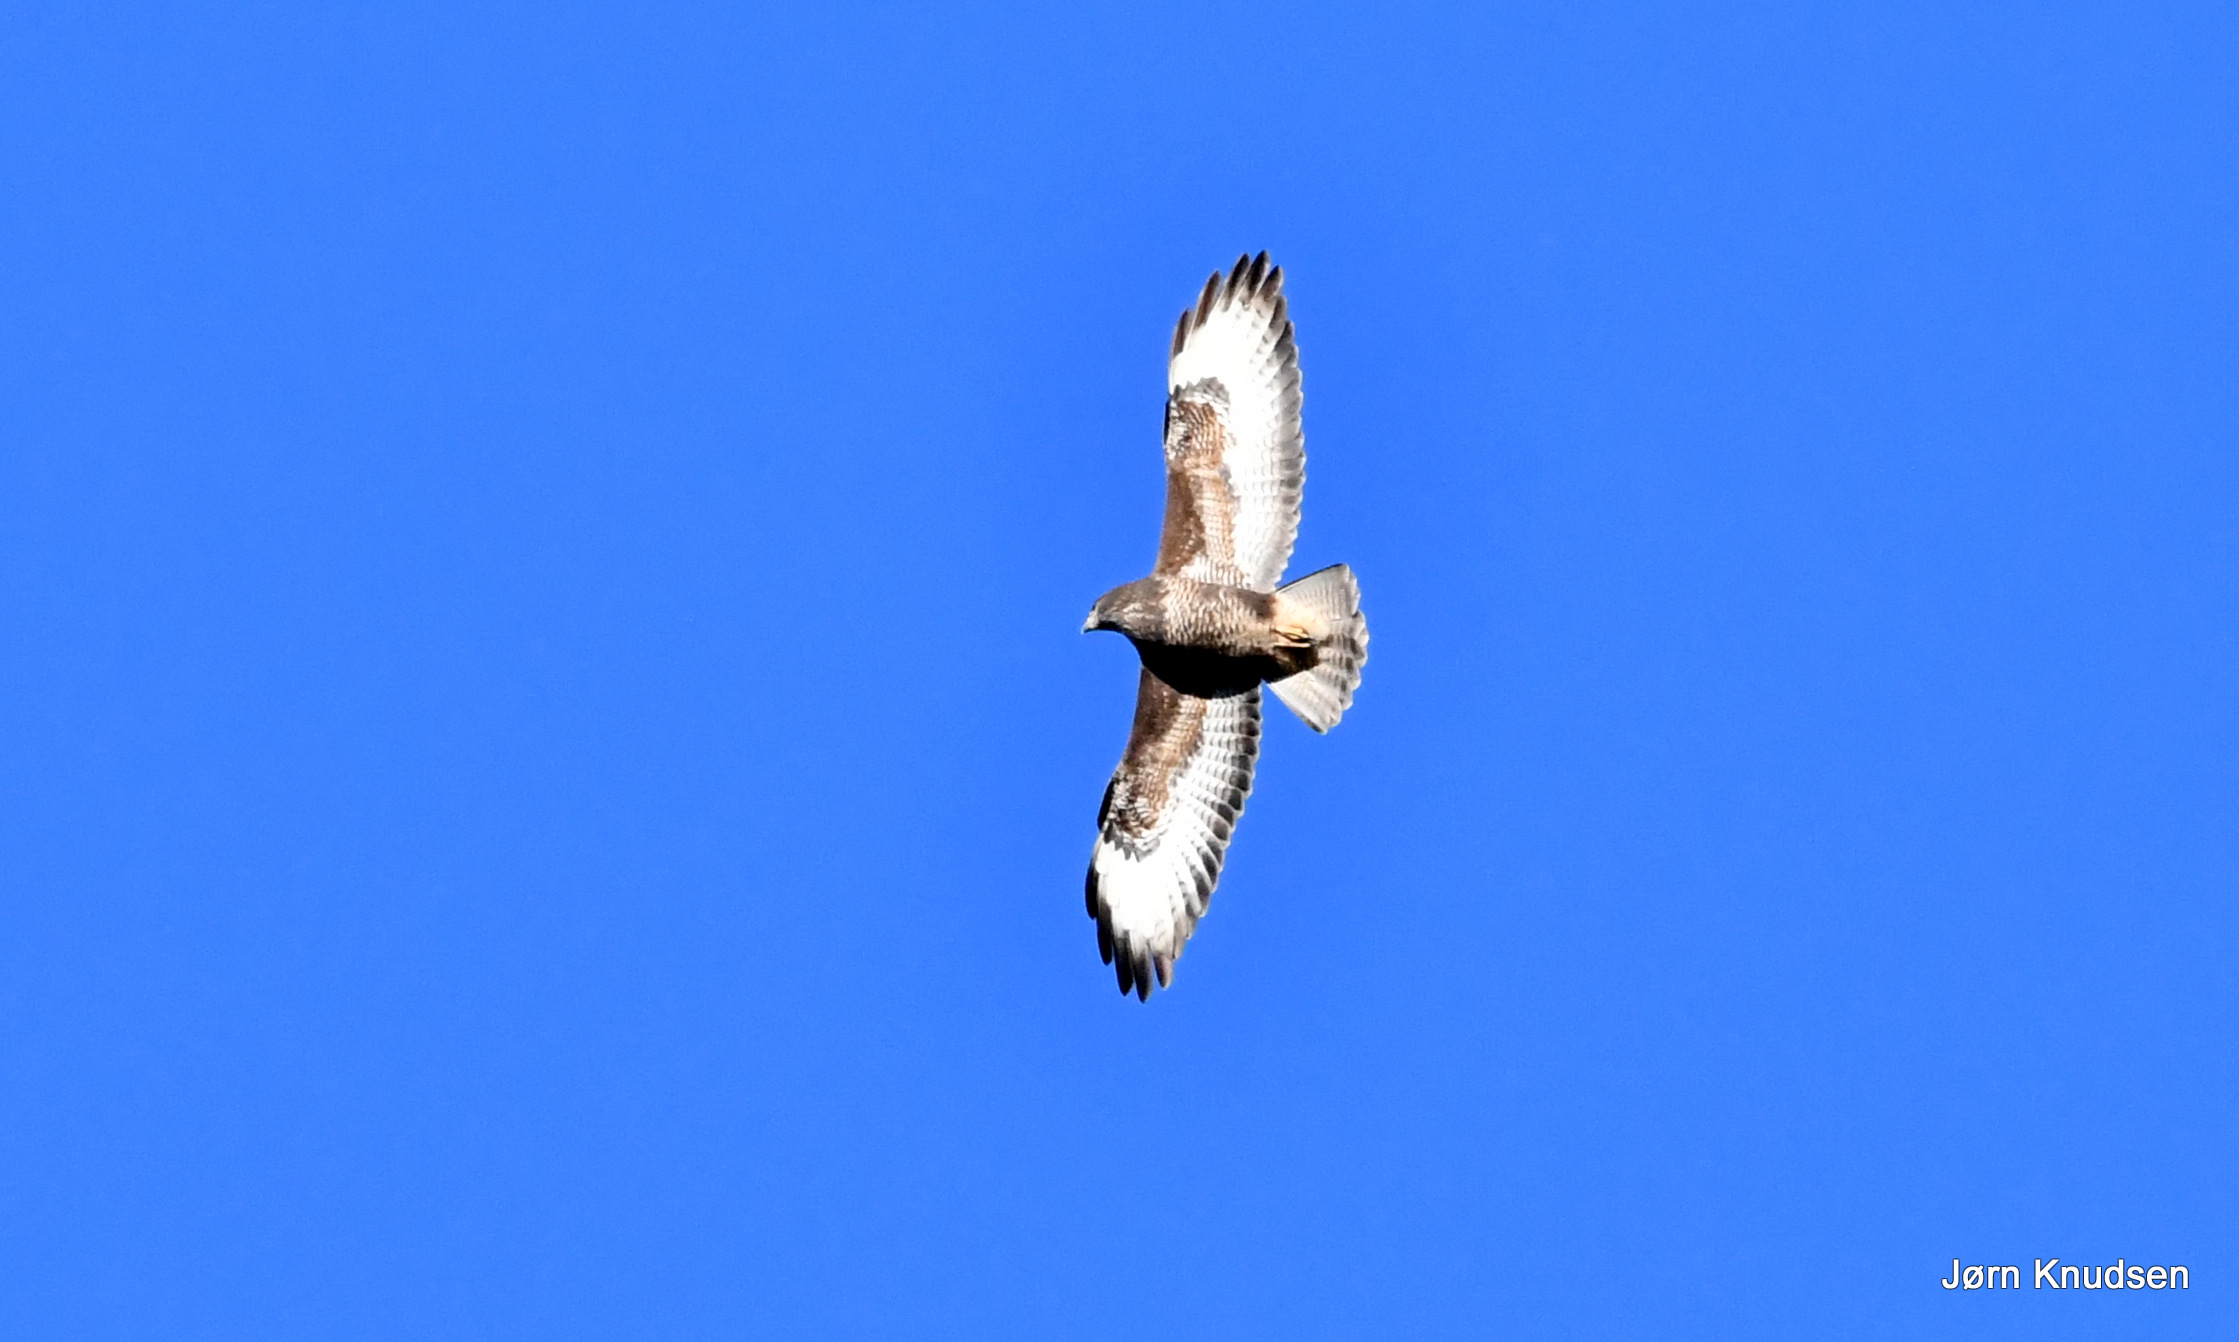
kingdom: Animalia
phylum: Chordata
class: Aves
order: Accipitriformes
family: Accipitridae
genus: Buteo
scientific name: Buteo buteo
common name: Musvåge
